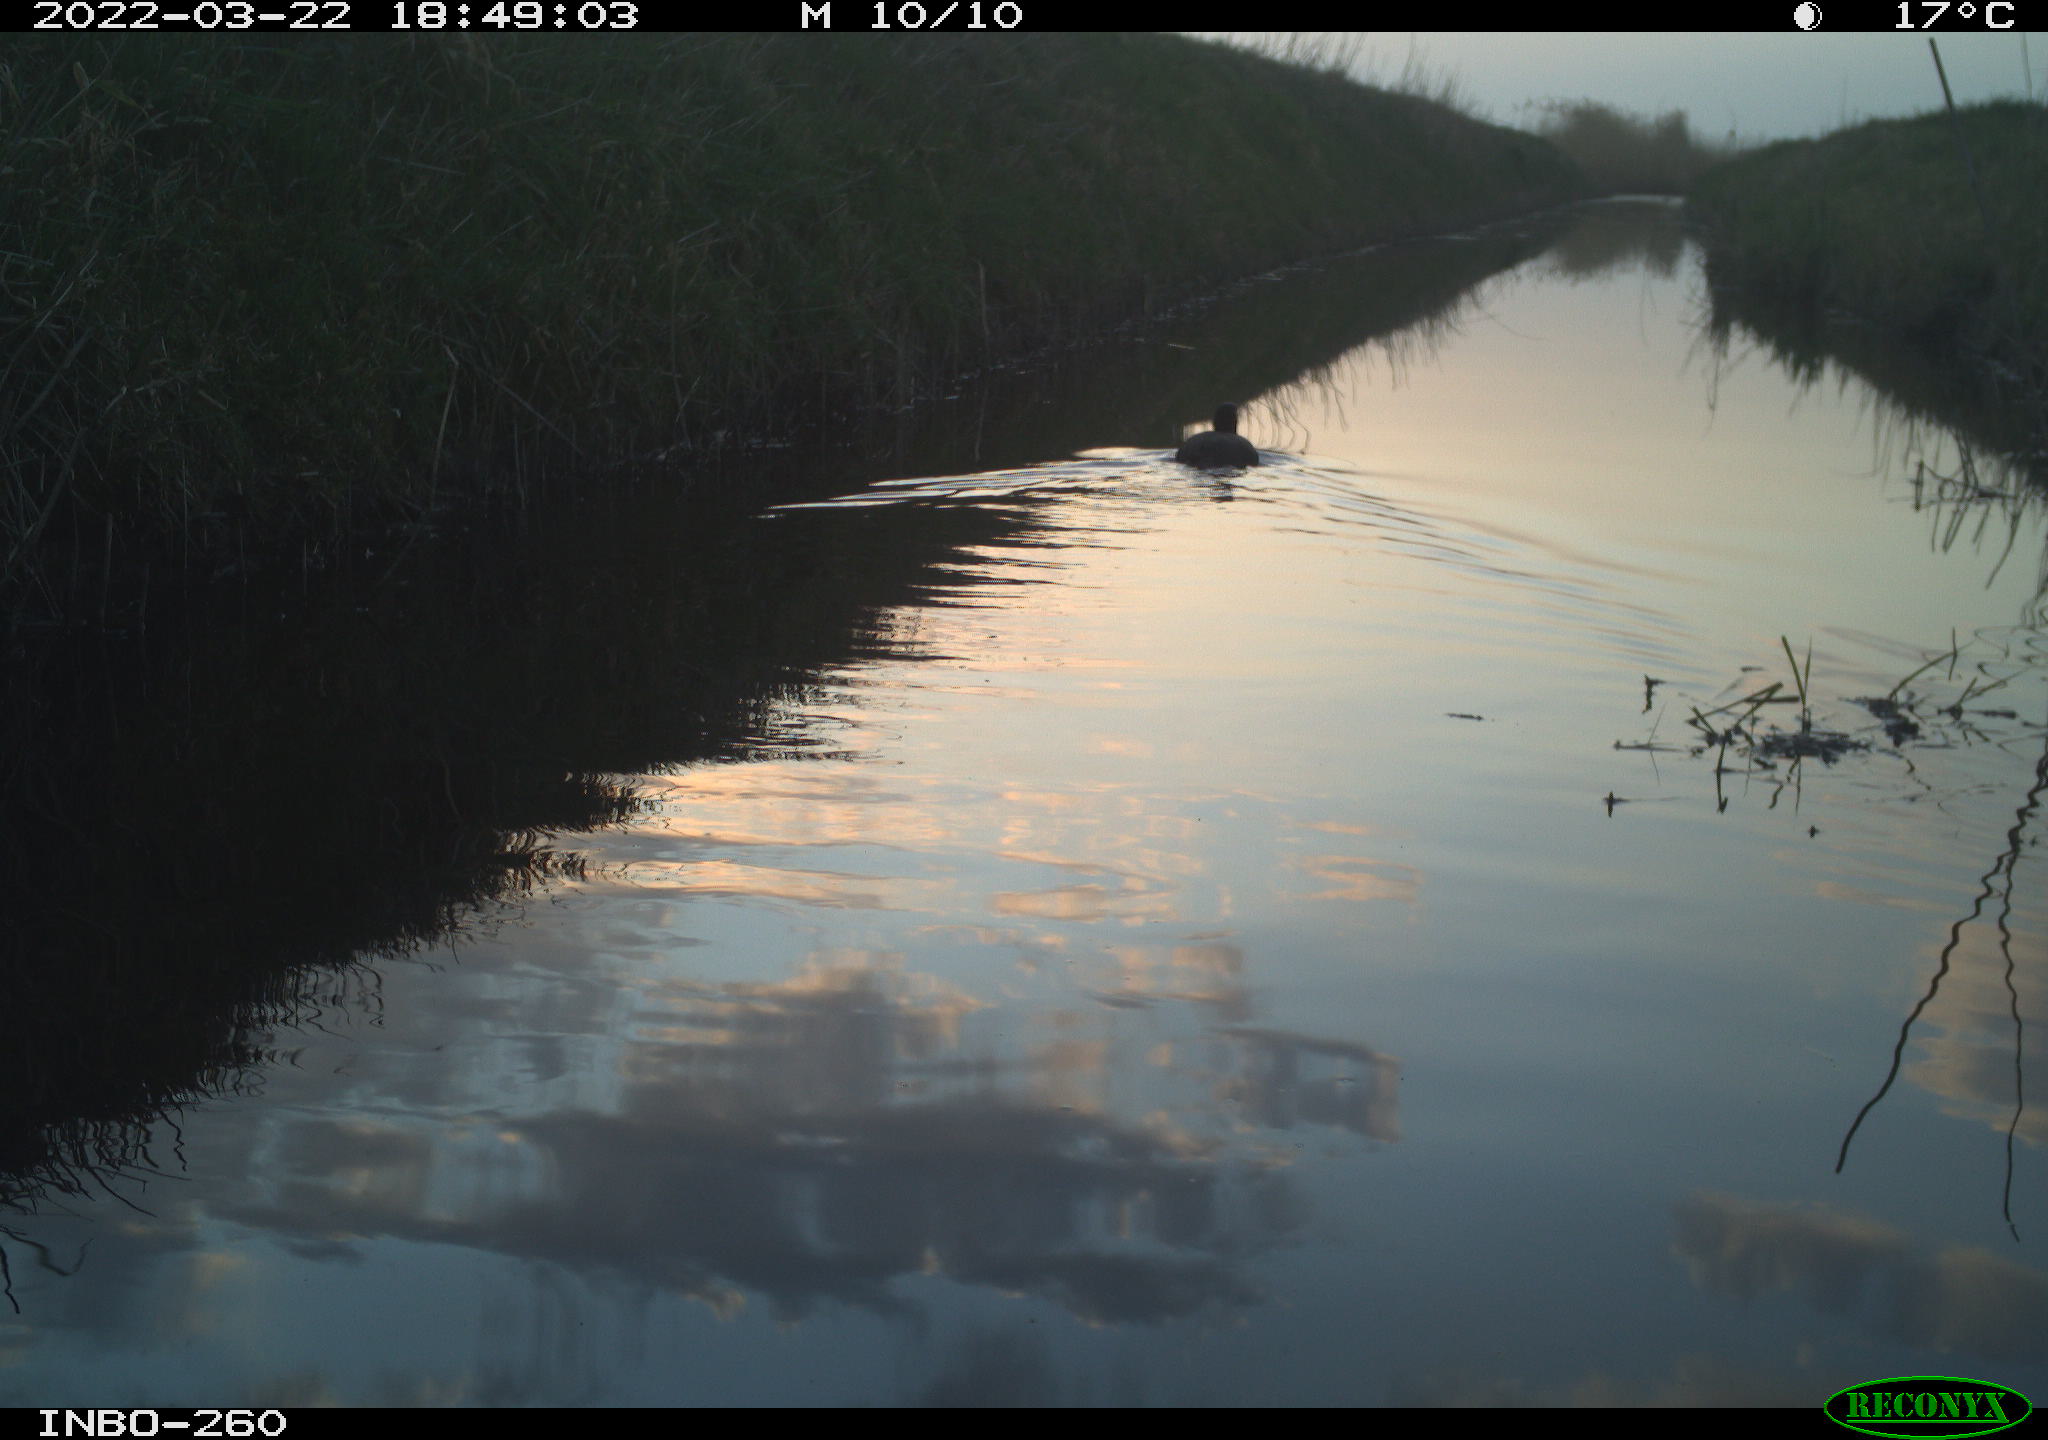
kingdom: Animalia
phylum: Chordata
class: Aves
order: Gruiformes
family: Rallidae
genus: Fulica
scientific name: Fulica atra
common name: Eurasian coot
